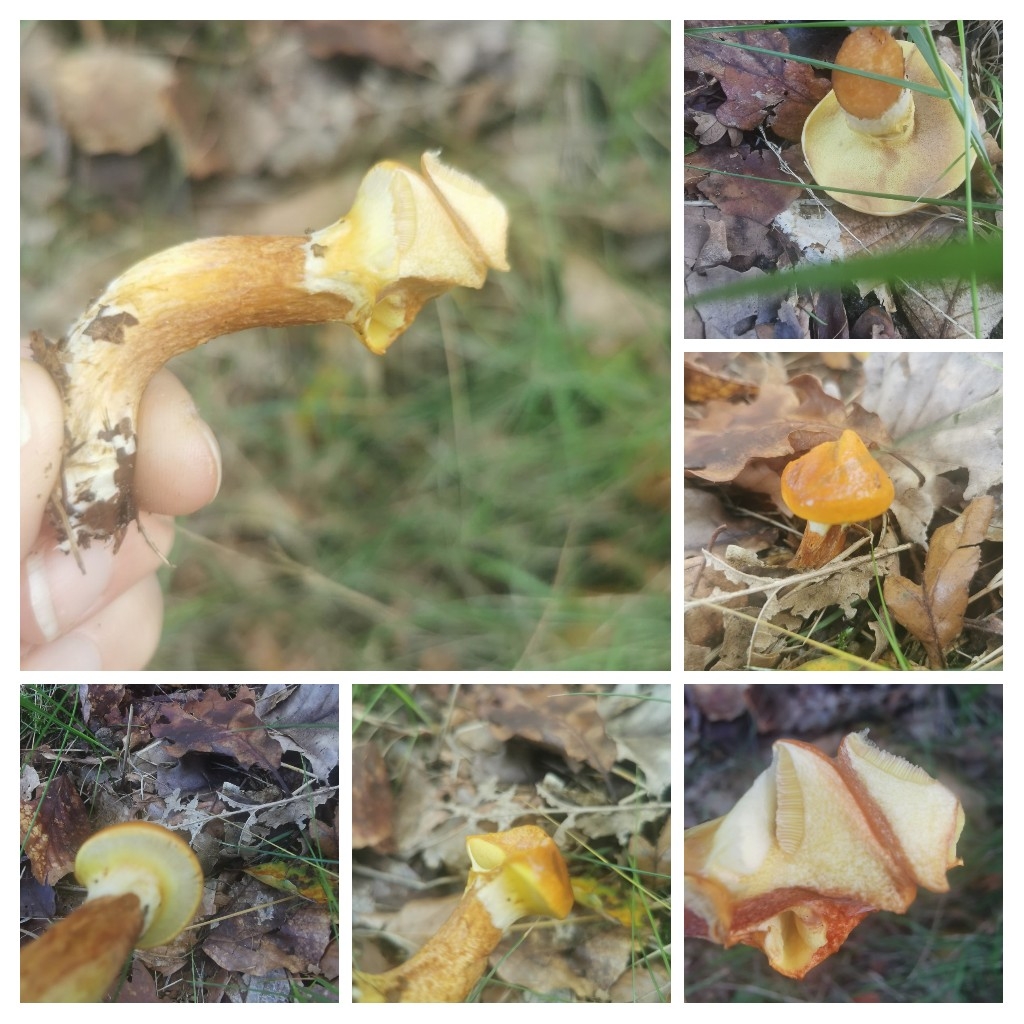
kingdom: Fungi
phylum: Basidiomycota
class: Agaricomycetes
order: Boletales
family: Suillaceae
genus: Suillus
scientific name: Suillus grevillei
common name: lærke-slimrørhat
